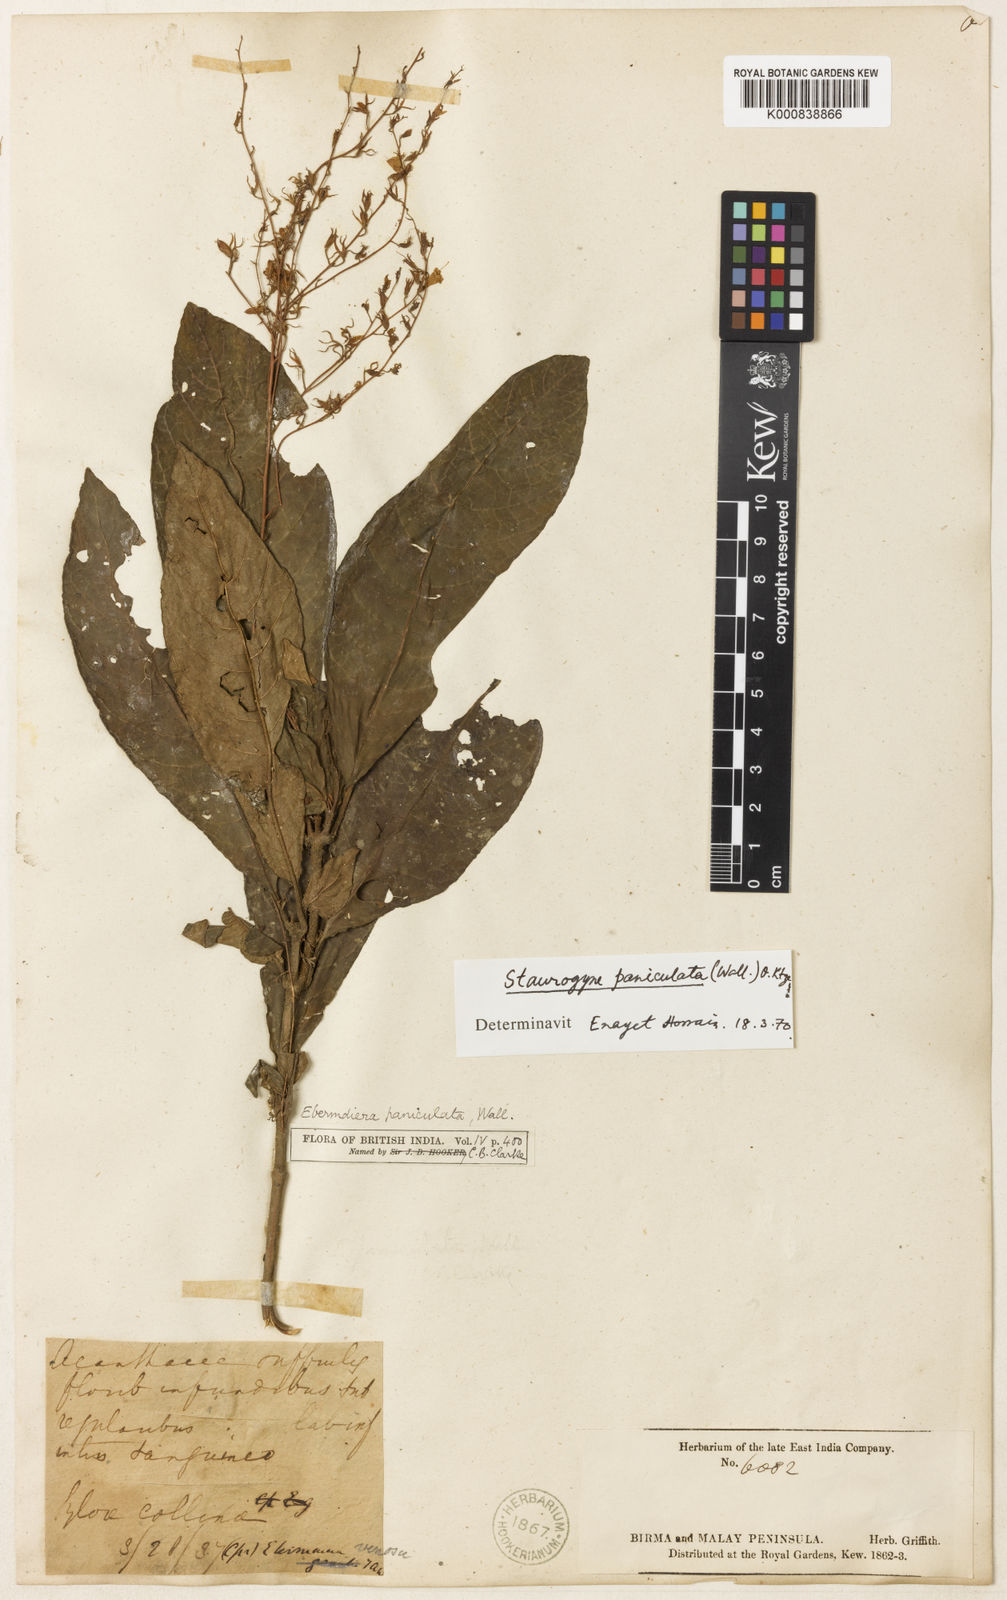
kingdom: Plantae
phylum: Tracheophyta
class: Magnoliopsida
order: Lamiales
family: Acanthaceae
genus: Staurogyne
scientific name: Staurogyne paniculata
